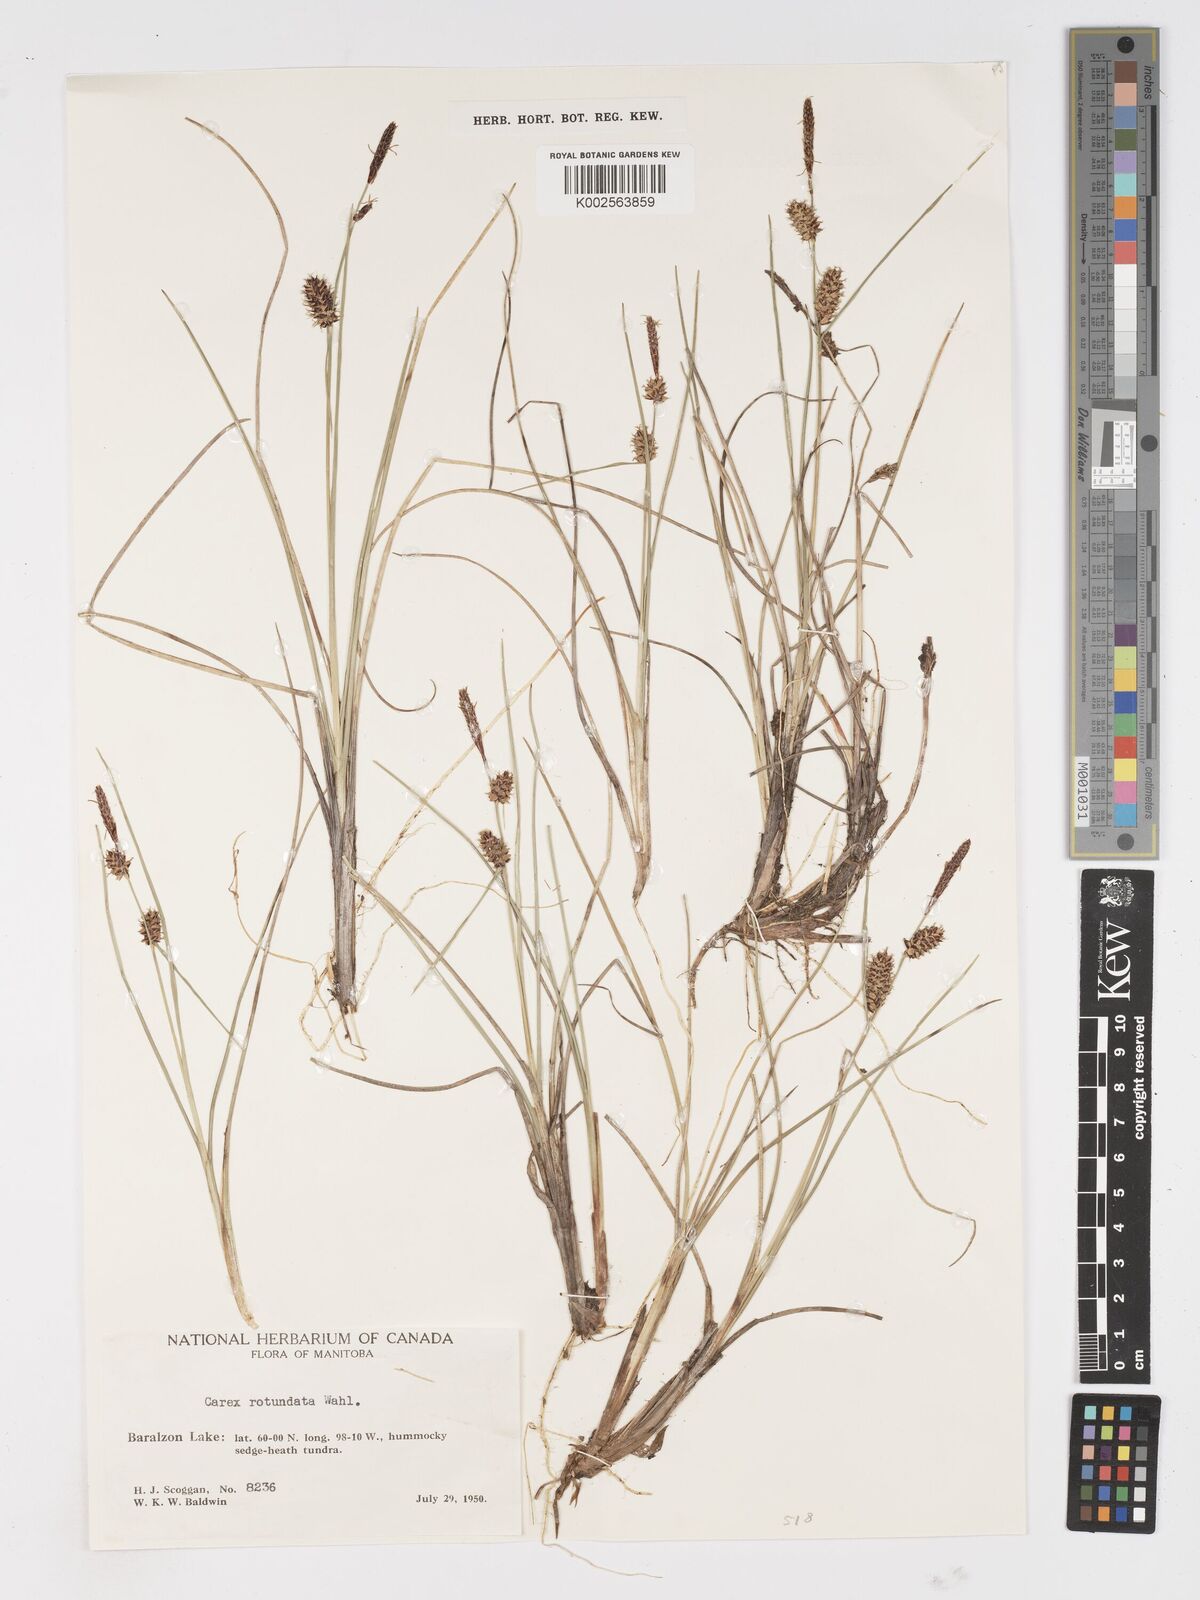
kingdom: Plantae
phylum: Tracheophyta
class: Liliopsida
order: Poales
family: Cyperaceae
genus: Carex
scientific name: Carex rotundata
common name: Round-fruited sedge
